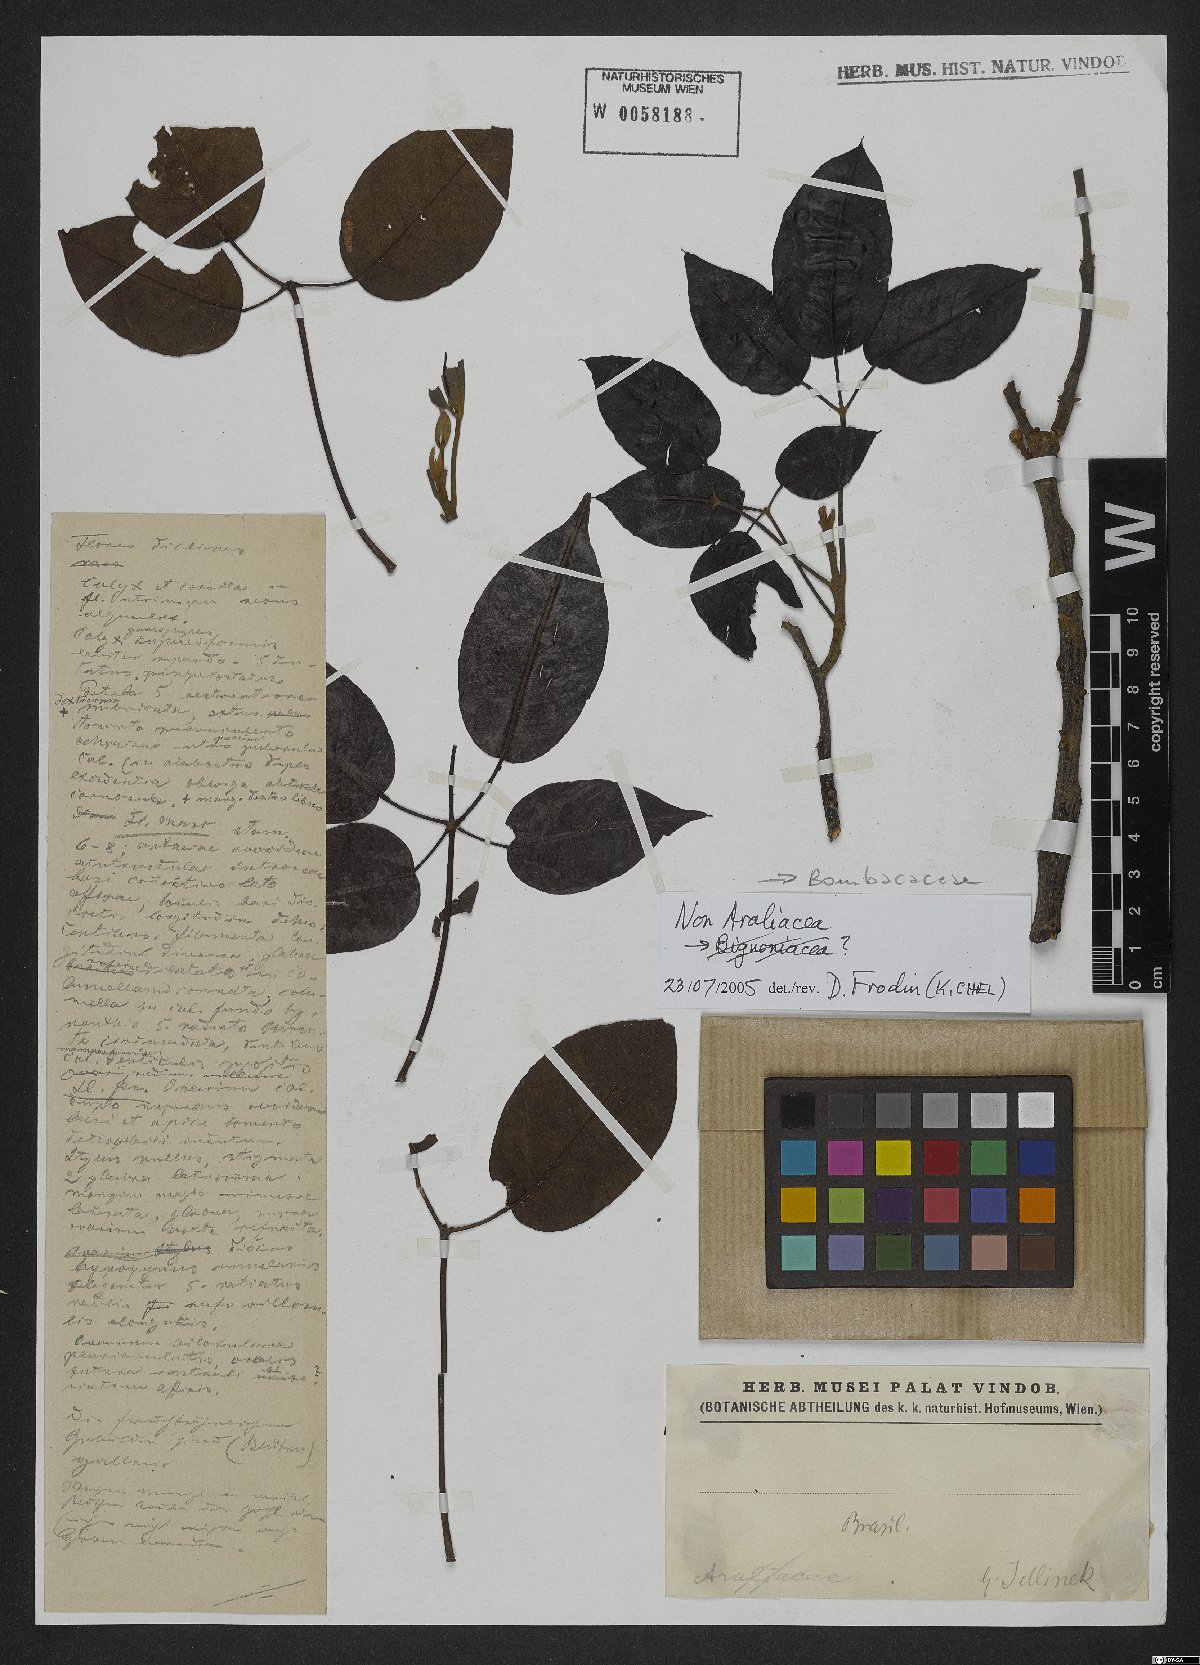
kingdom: Plantae
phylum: Tracheophyta
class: Magnoliopsida
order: Malvales
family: Malvaceae
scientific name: Malvaceae
